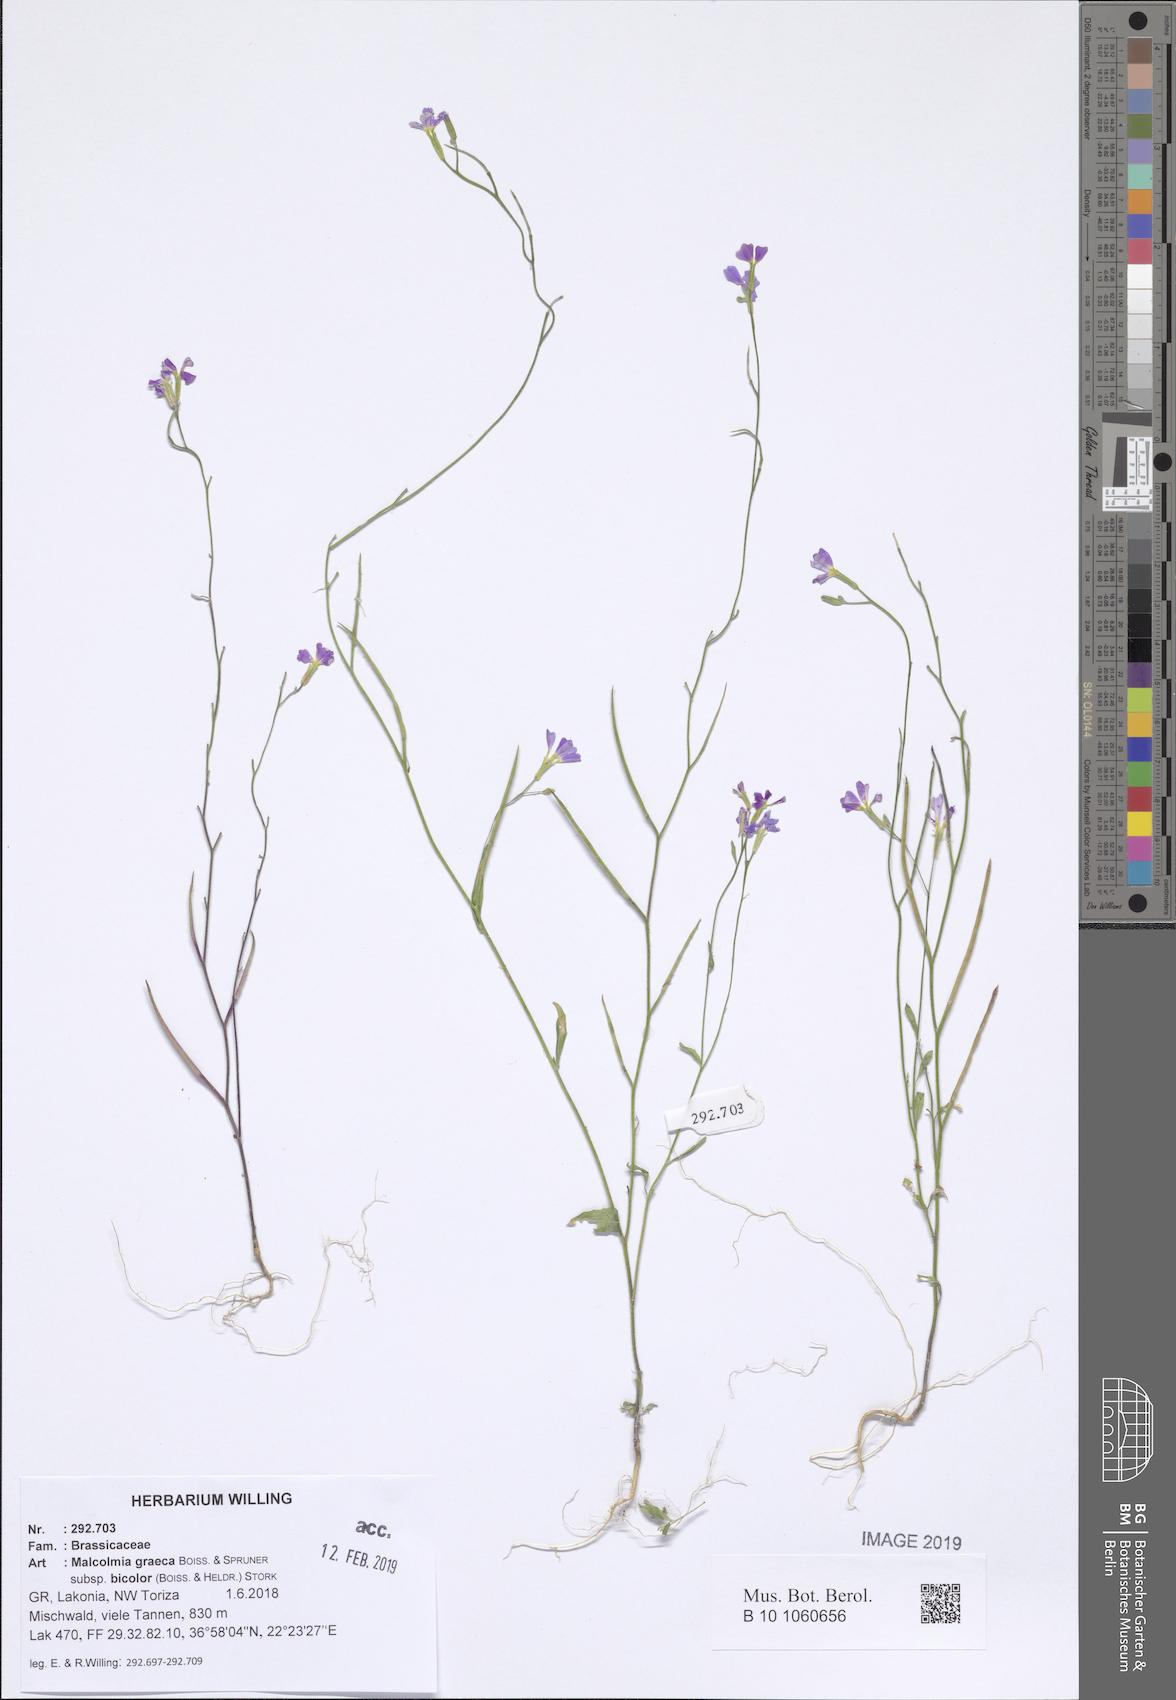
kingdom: Plantae
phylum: Tracheophyta
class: Magnoliopsida
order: Brassicales
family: Brassicaceae
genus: Malcolmia
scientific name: Malcolmia graeca
